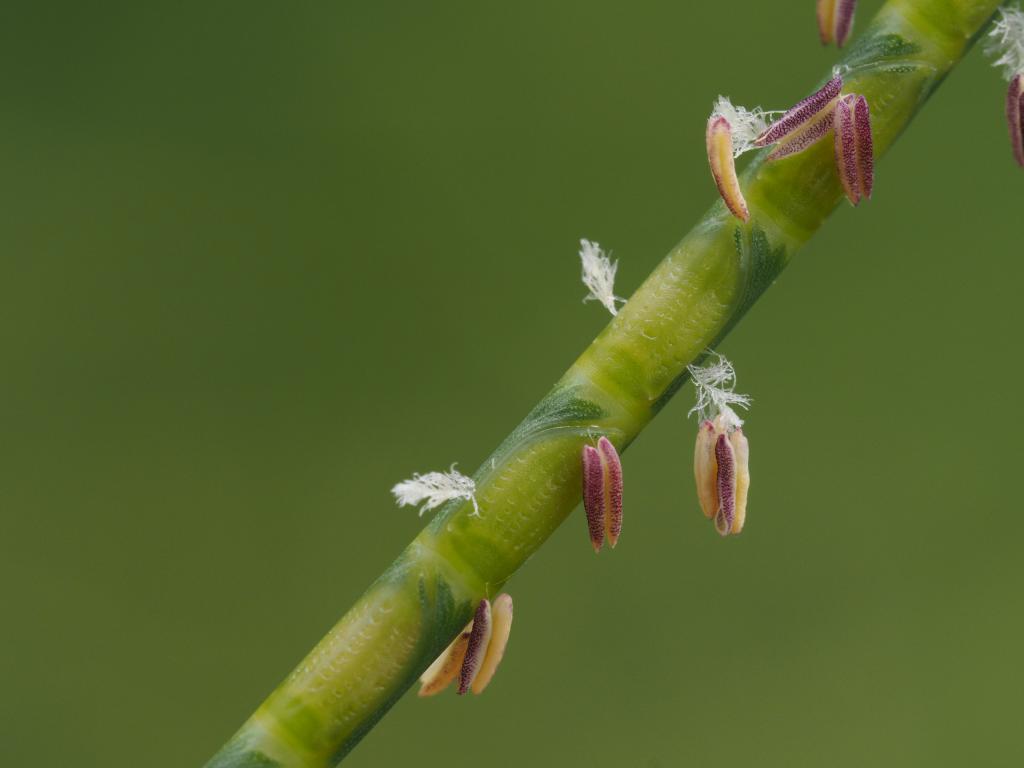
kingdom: Plantae
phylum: Tracheophyta
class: Liliopsida
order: Poales
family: Poaceae
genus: Mnesithea
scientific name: Mnesithea laevis
